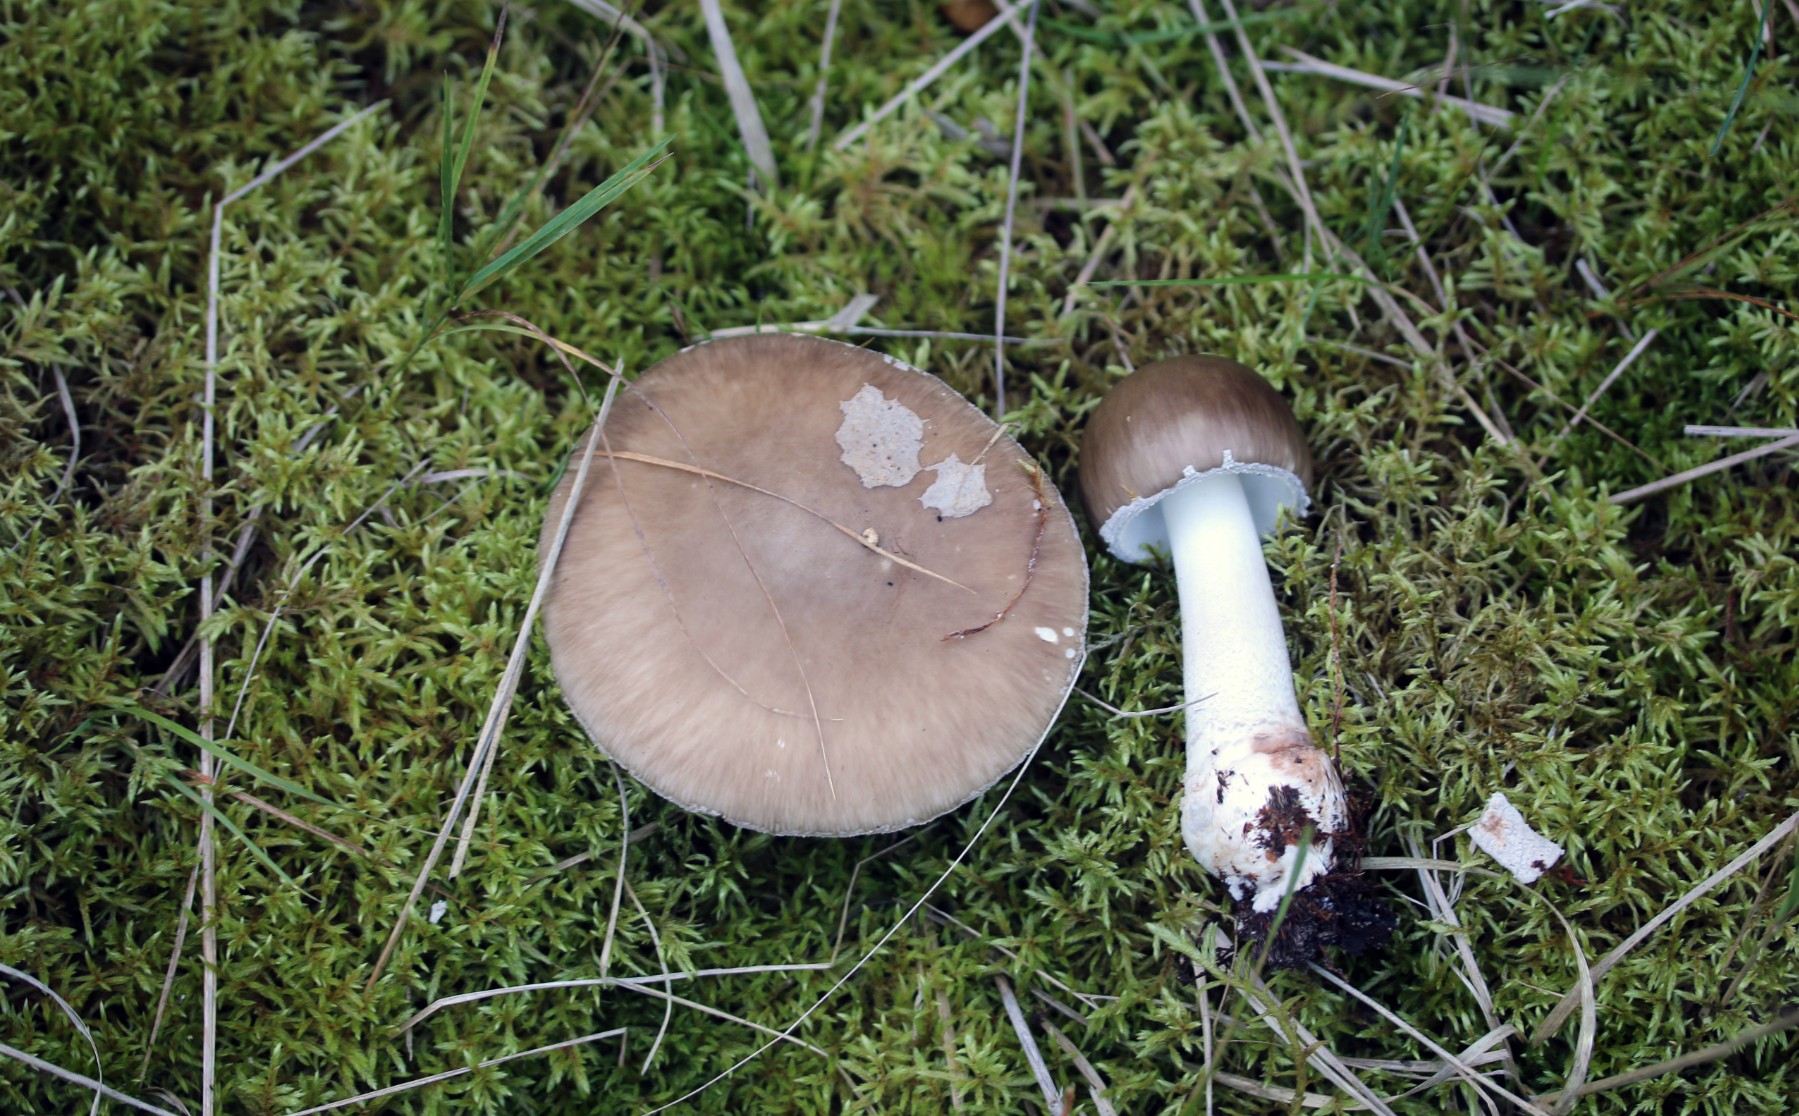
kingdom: Fungi
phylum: Basidiomycota
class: Agaricomycetes
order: Agaricales
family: Amanitaceae
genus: Amanita
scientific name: Amanita porphyria
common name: porfyr-fluesvamp
